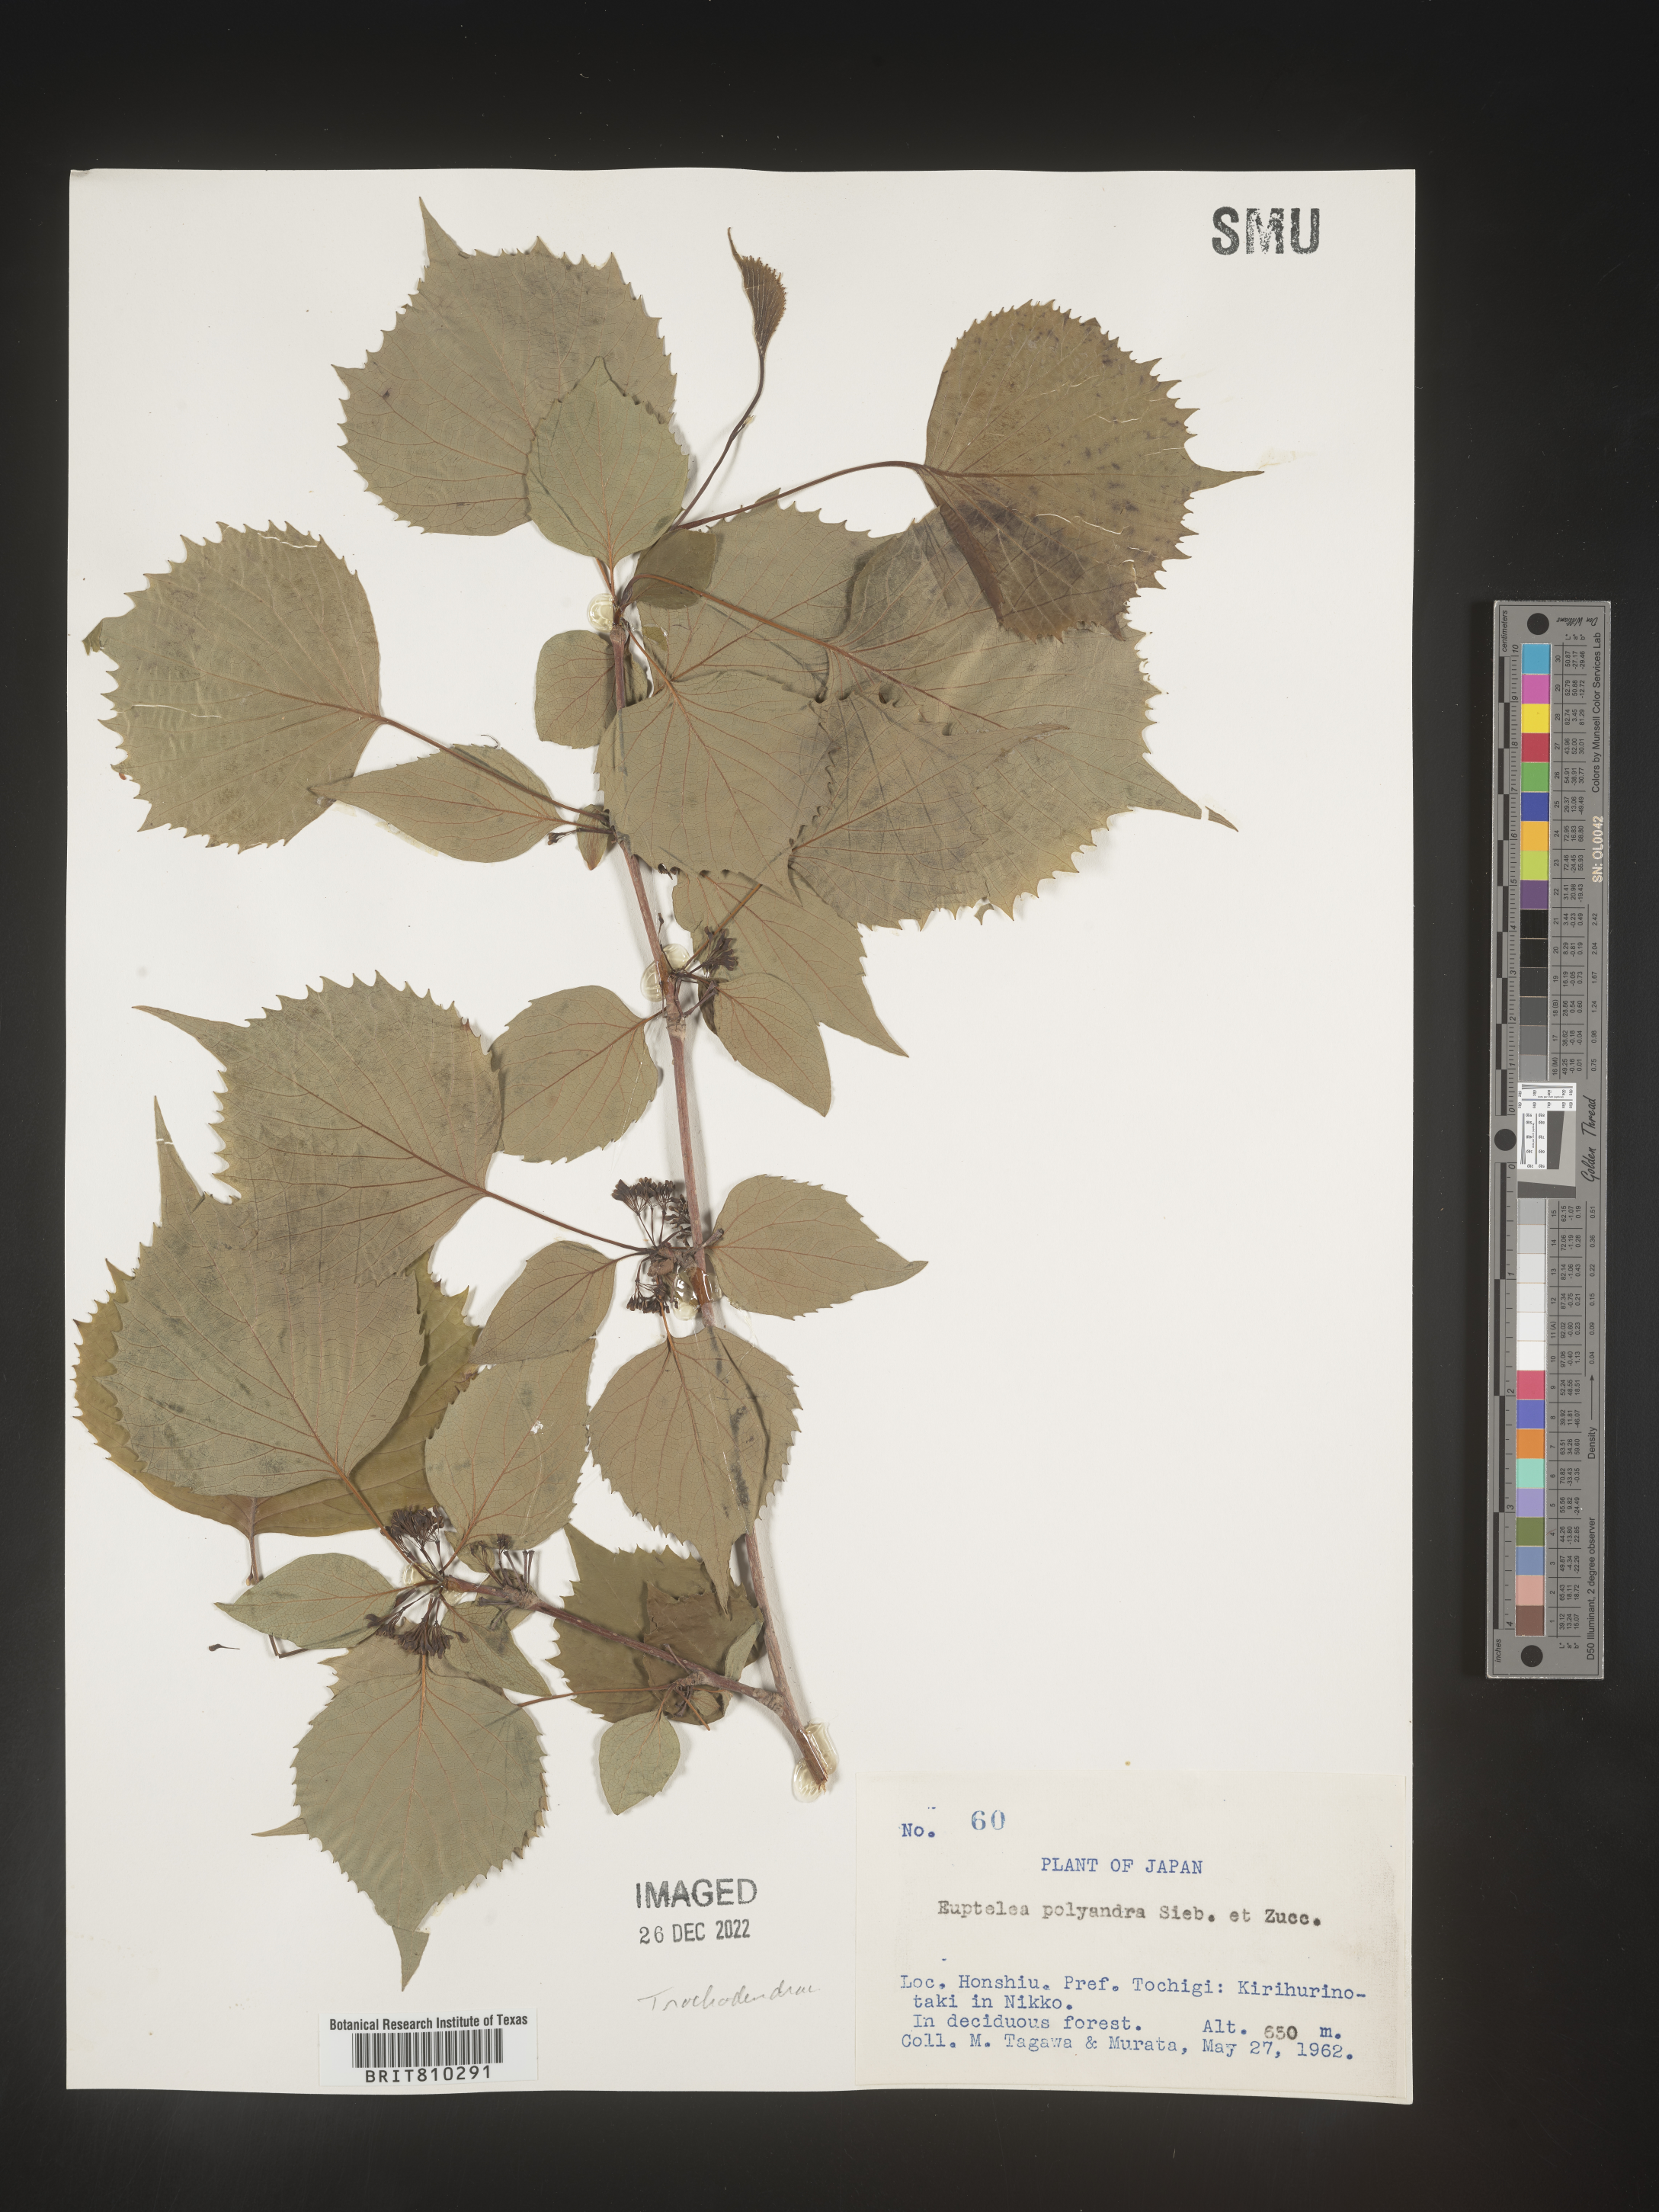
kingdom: Plantae
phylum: Tracheophyta
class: Magnoliopsida
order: Ranunculales
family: Eupteleaceae
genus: Euptelea
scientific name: Euptelea
